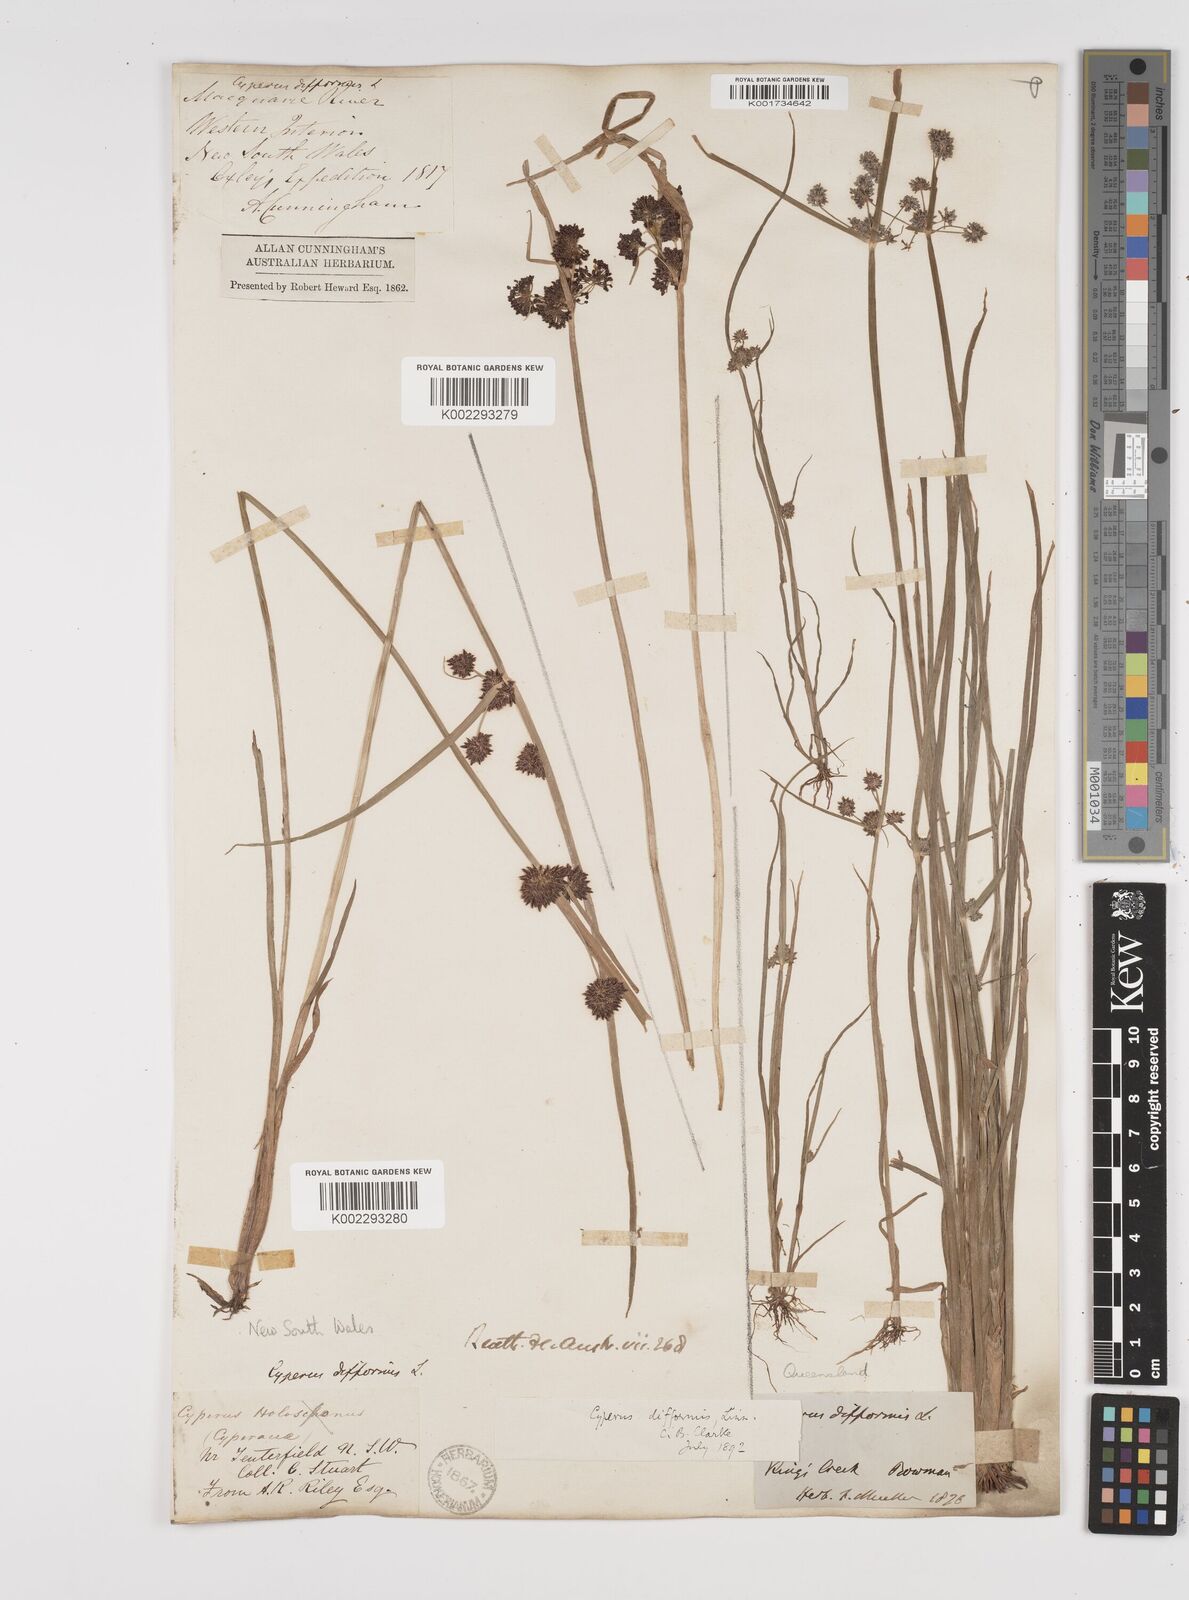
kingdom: Plantae
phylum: Tracheophyta
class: Liliopsida
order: Poales
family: Cyperaceae
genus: Cyperus
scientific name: Cyperus difformis
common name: Variable flatsedge
